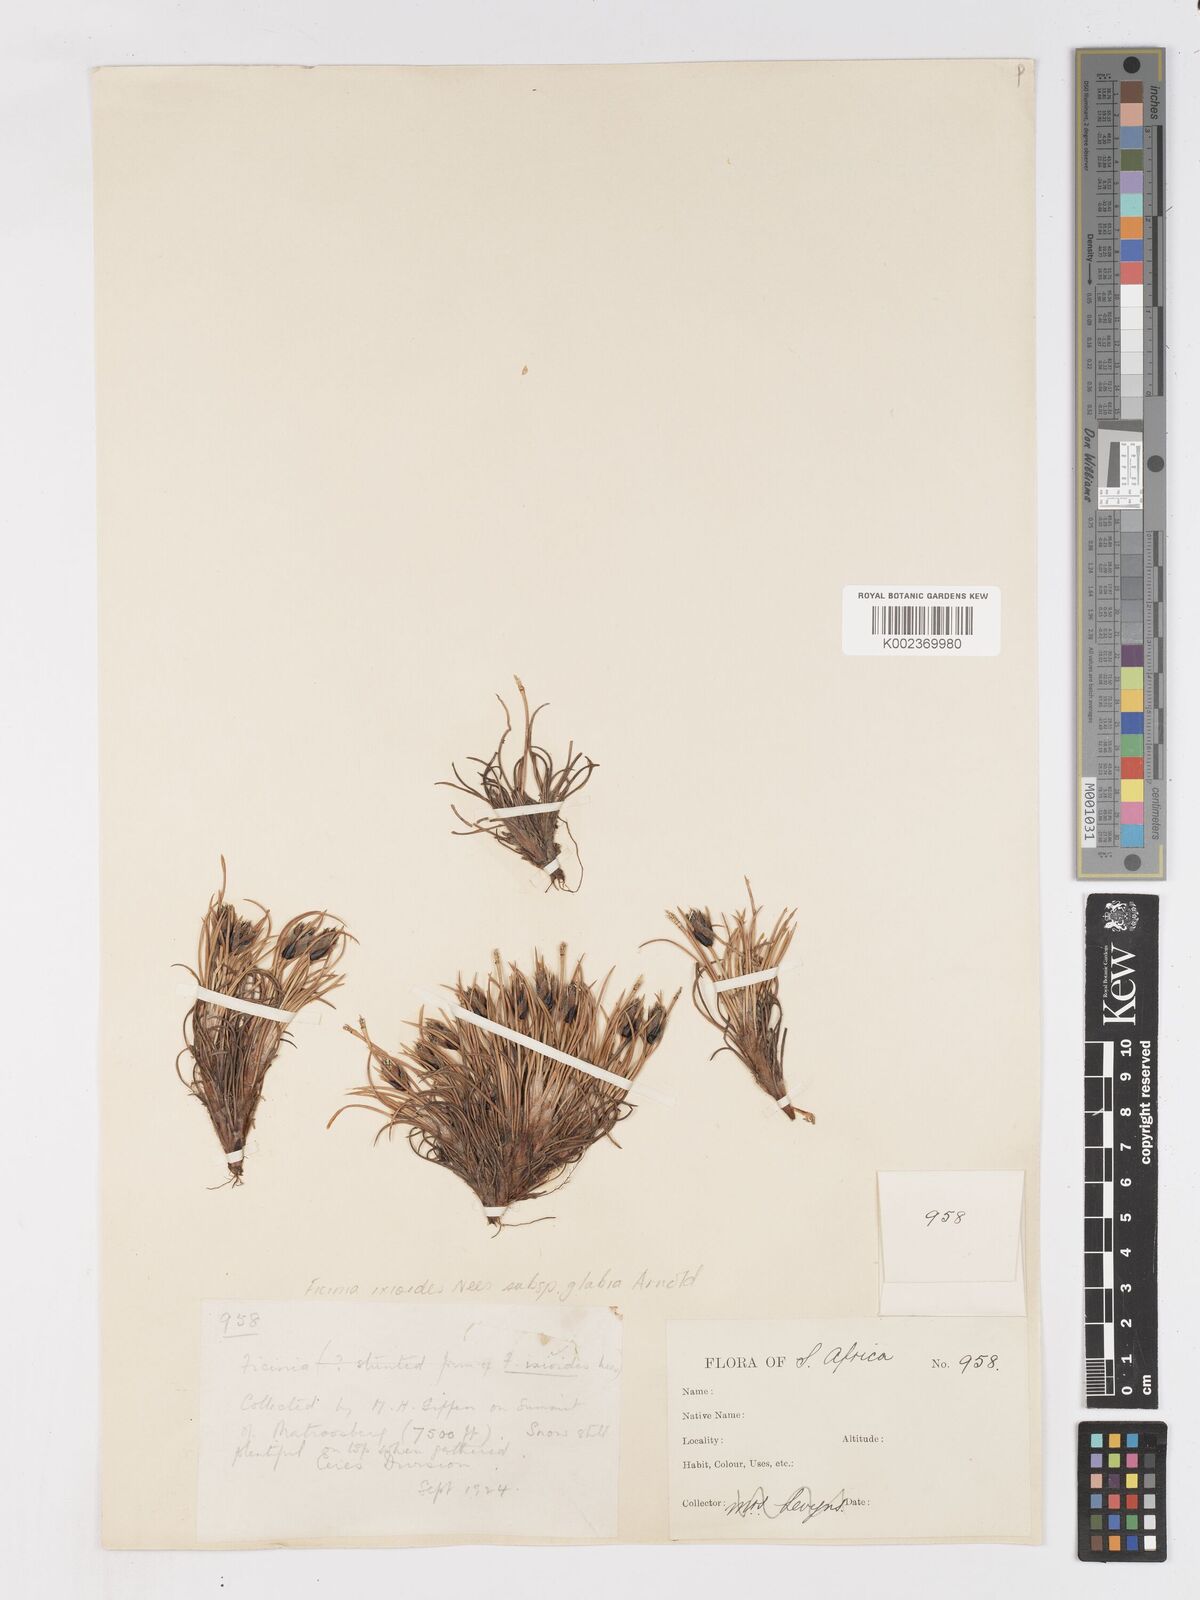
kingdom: Plantae
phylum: Tracheophyta
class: Liliopsida
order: Poales
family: Cyperaceae
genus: Ficinia
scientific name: Ficinia ixioides
